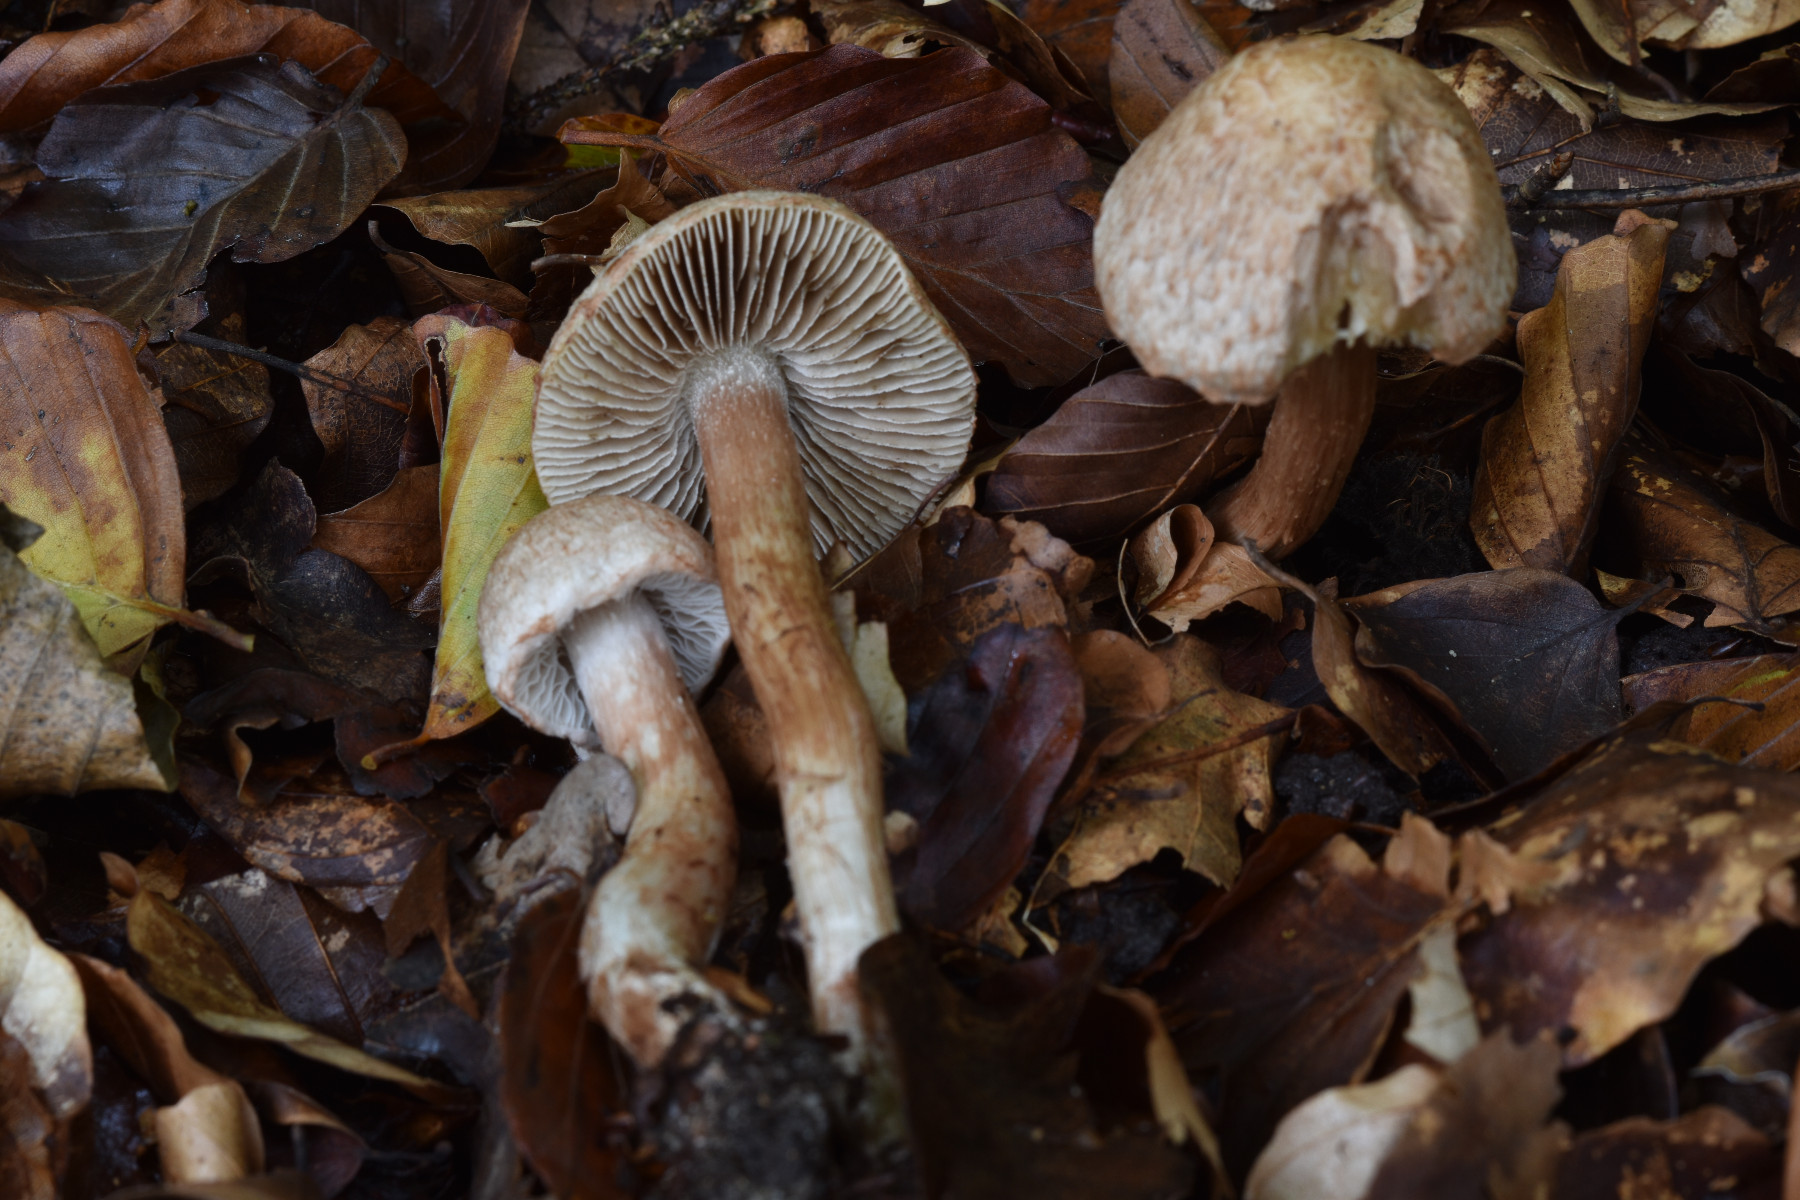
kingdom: Fungi
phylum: Basidiomycota
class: Agaricomycetes
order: Agaricales
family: Inocybaceae
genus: Inosperma
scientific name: Inosperma bongardii
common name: Bongards trævlhat
